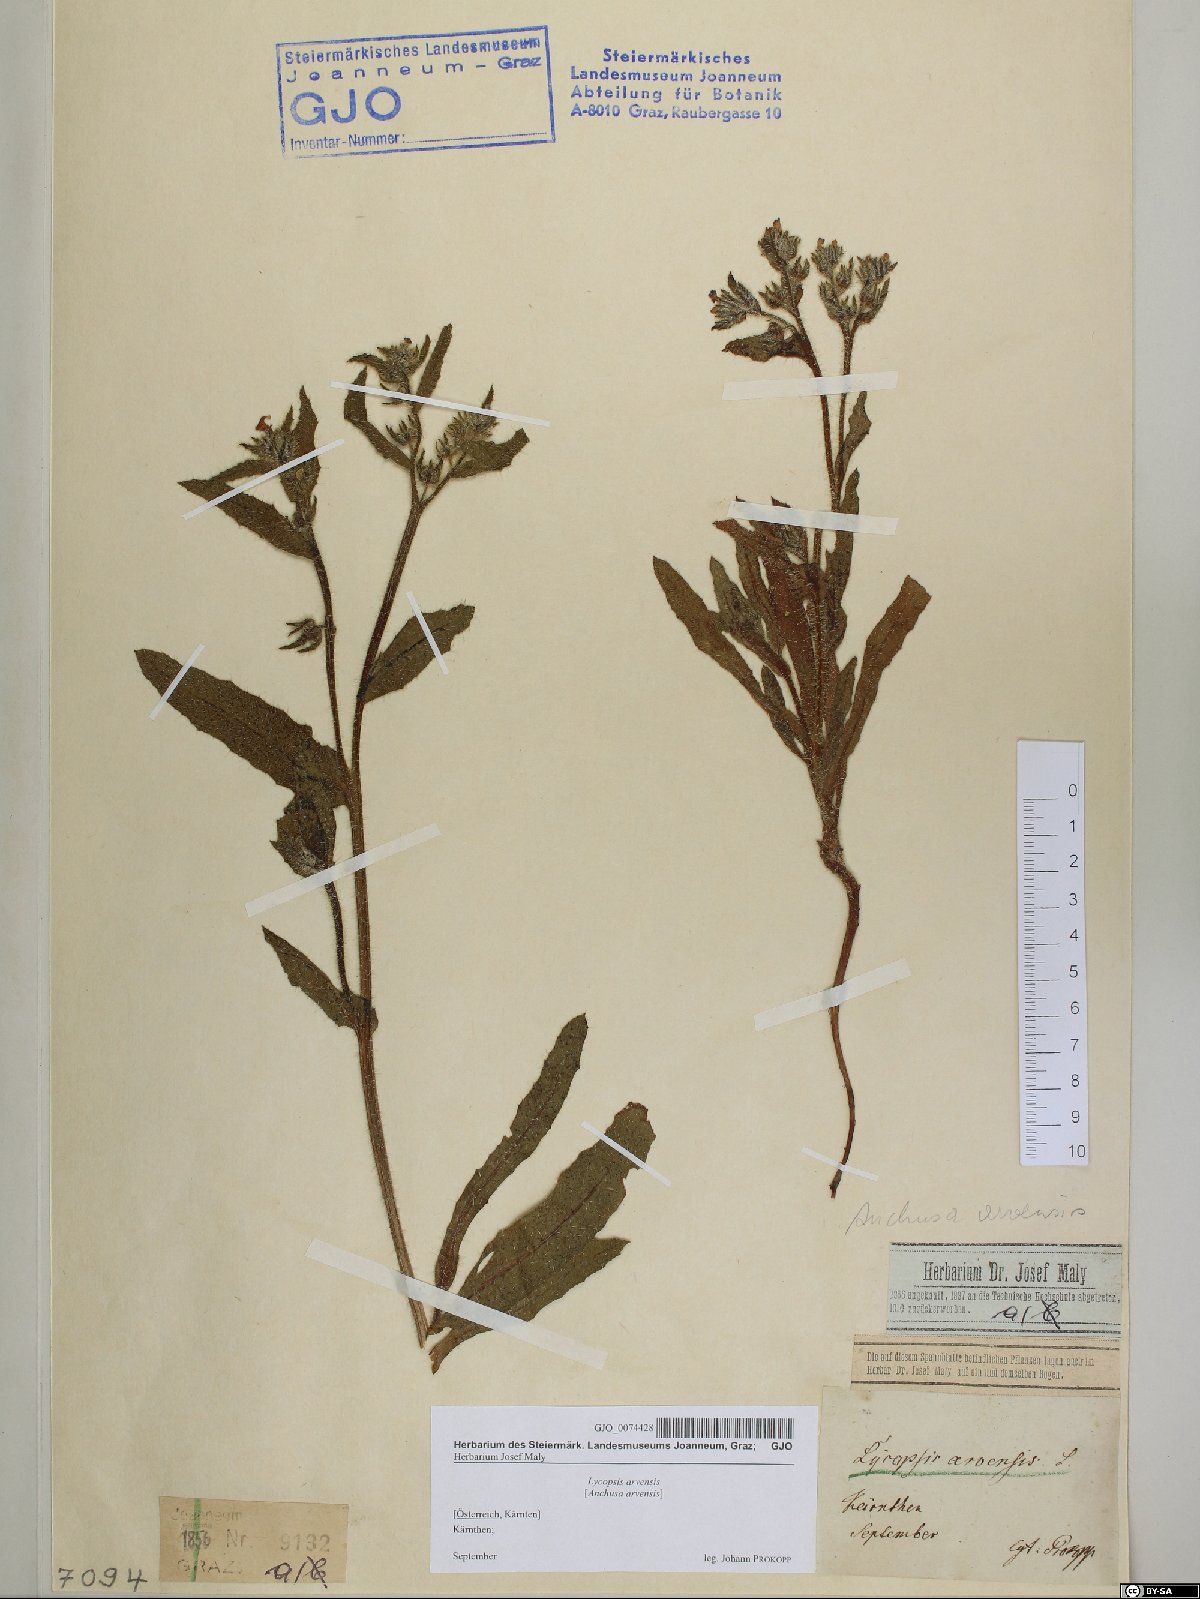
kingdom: Plantae
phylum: Tracheophyta
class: Magnoliopsida
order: Boraginales
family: Boraginaceae
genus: Lycopsis
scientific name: Lycopsis arvensis
